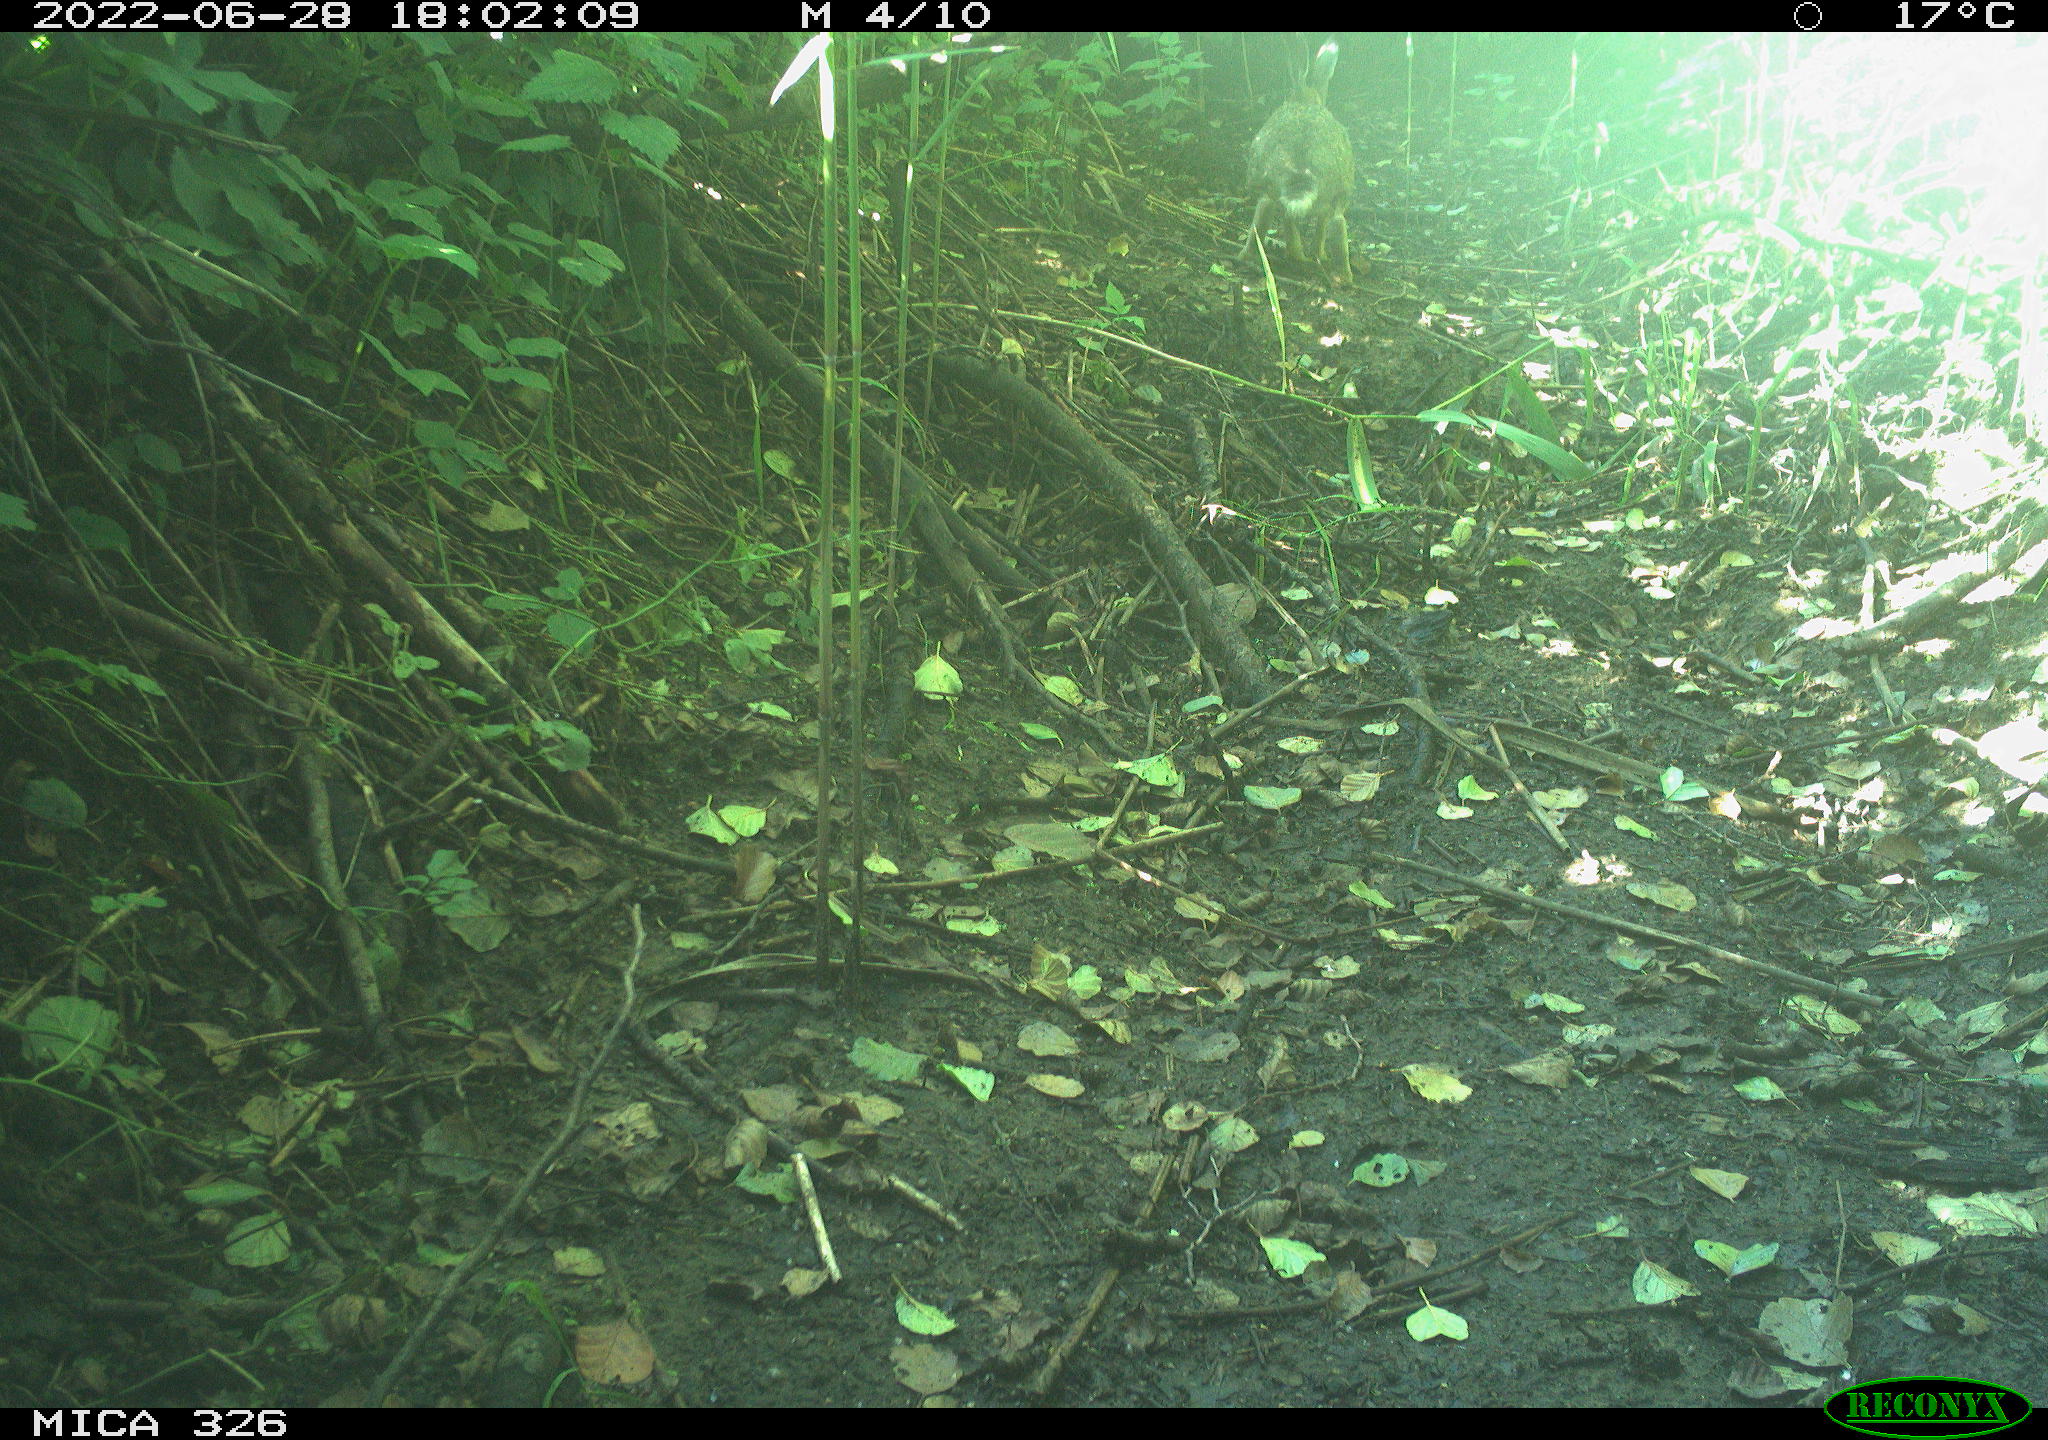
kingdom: Animalia
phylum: Chordata
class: Mammalia
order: Lagomorpha
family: Leporidae
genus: Lepus
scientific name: Lepus europaeus
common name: European hare
